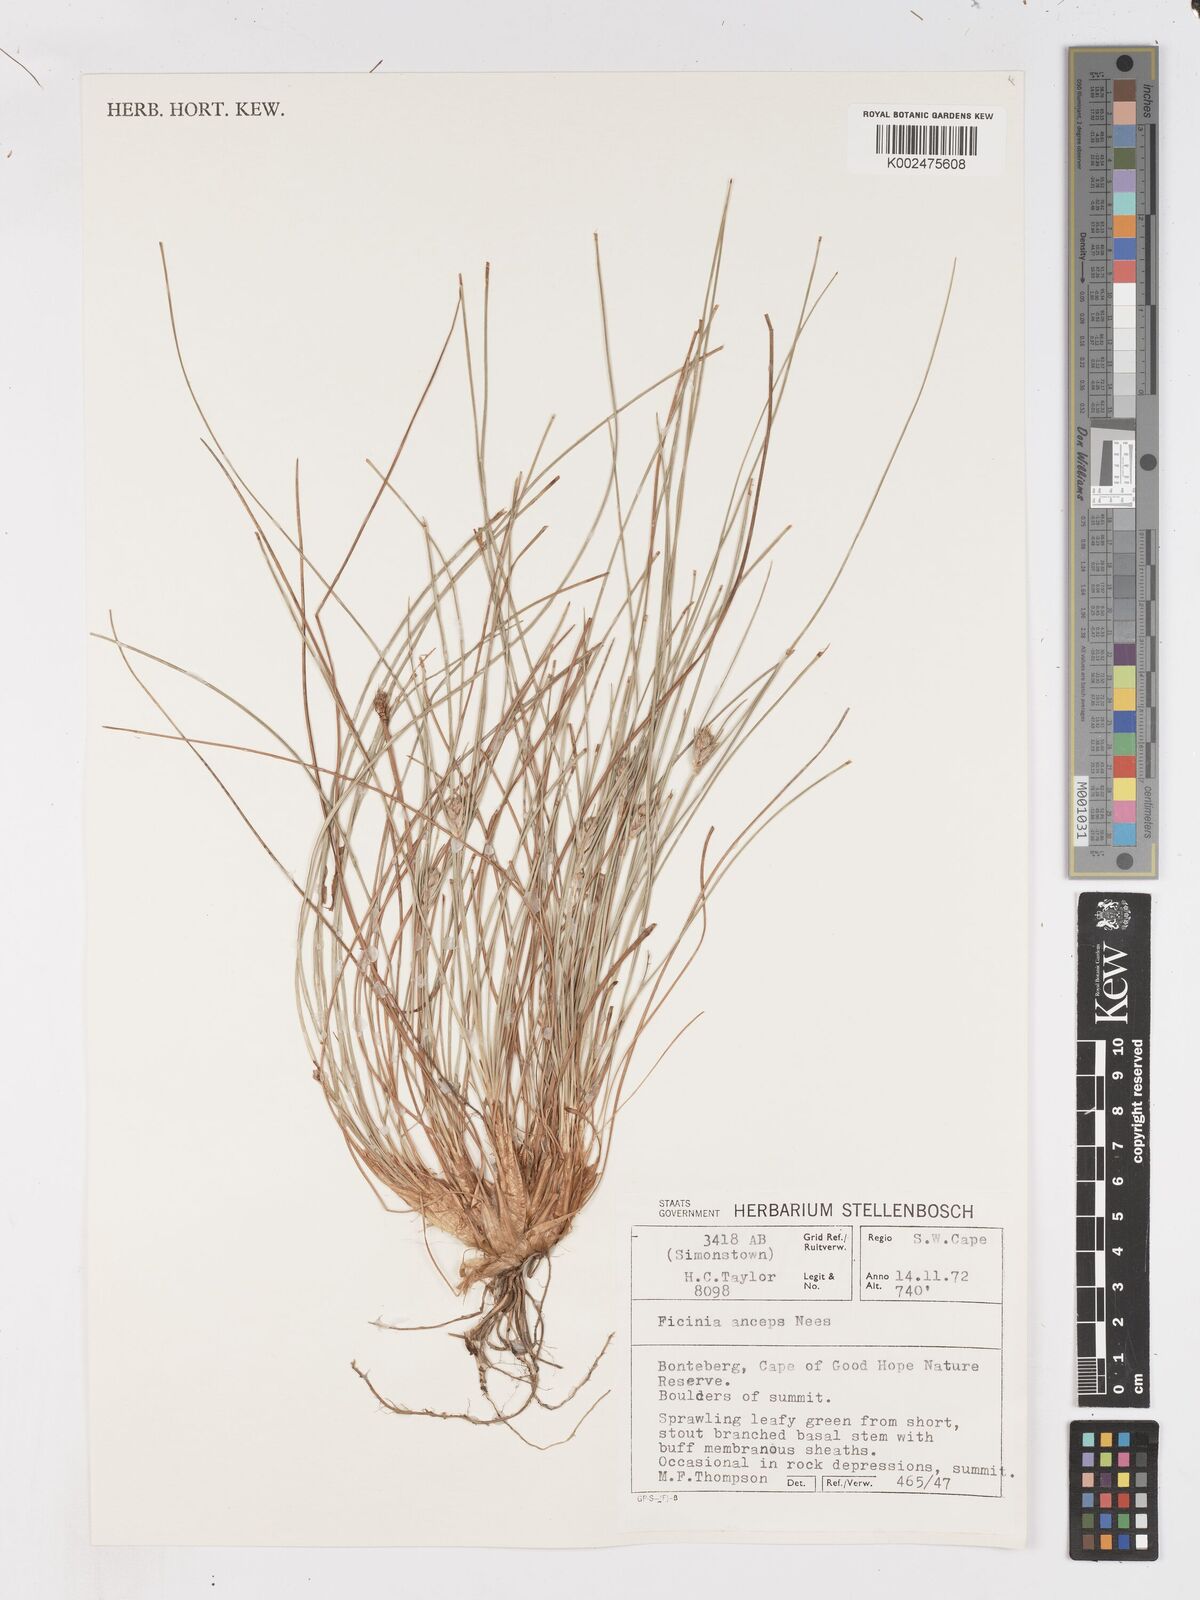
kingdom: Plantae
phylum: Tracheophyta
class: Liliopsida
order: Poales
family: Cyperaceae
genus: Ficinia
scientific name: Ficinia anceps
